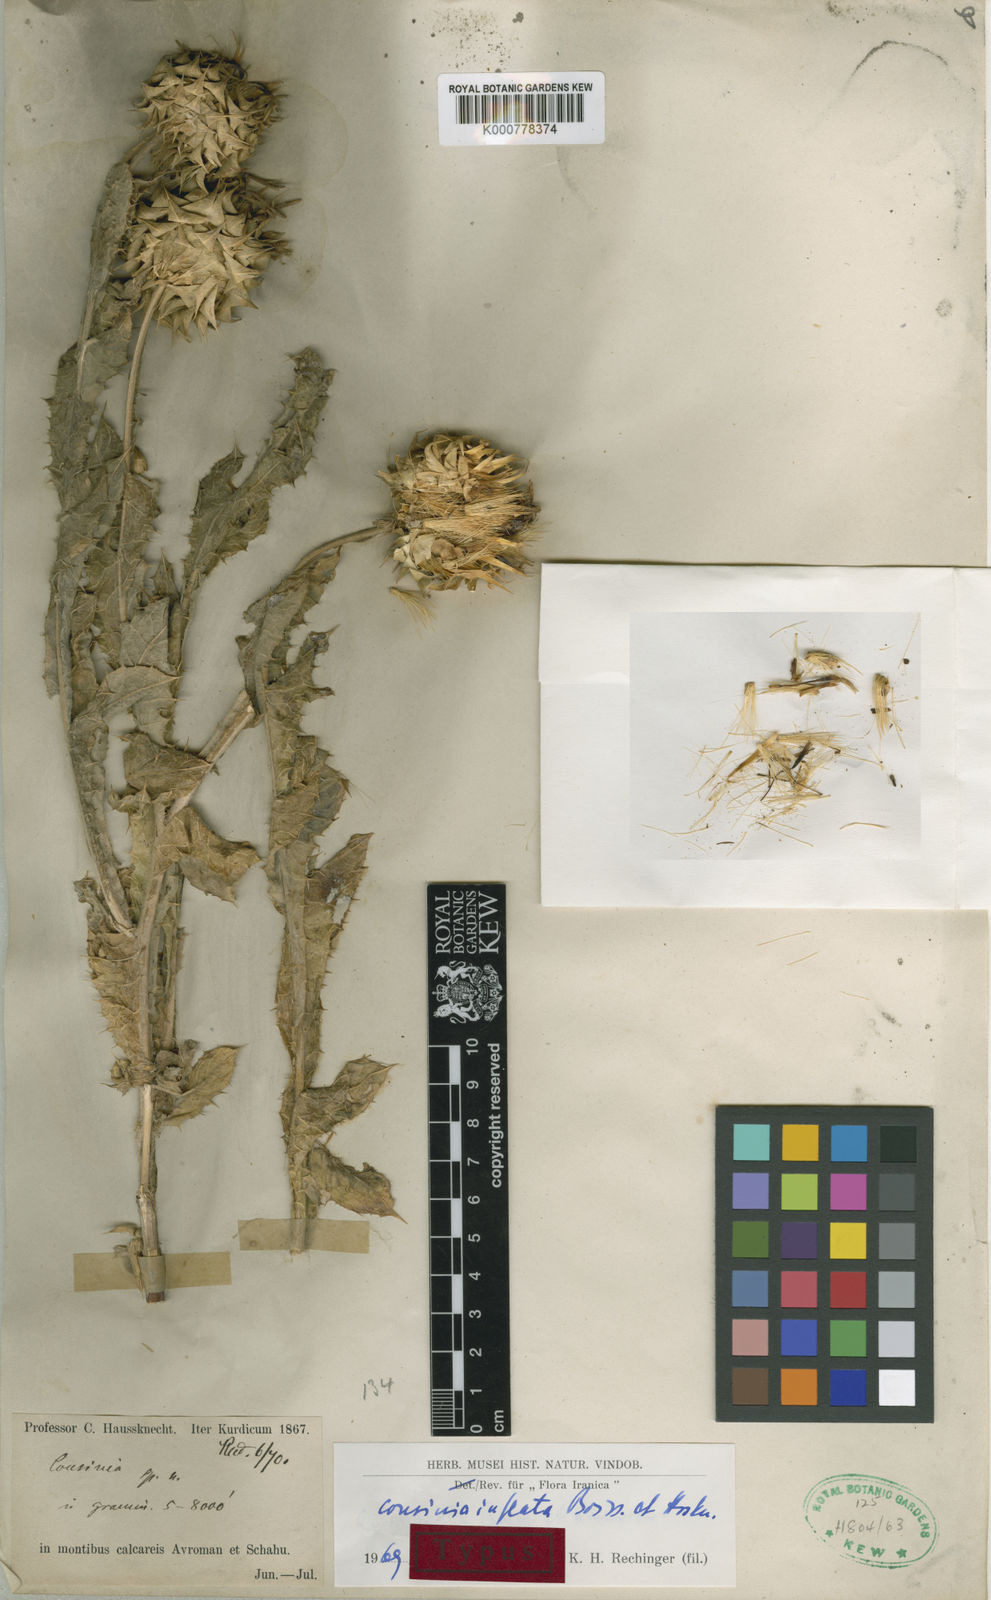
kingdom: Plantae
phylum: Tracheophyta
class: Magnoliopsida
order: Asterales
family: Asteraceae
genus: Cousinia
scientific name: Cousinia inflata
